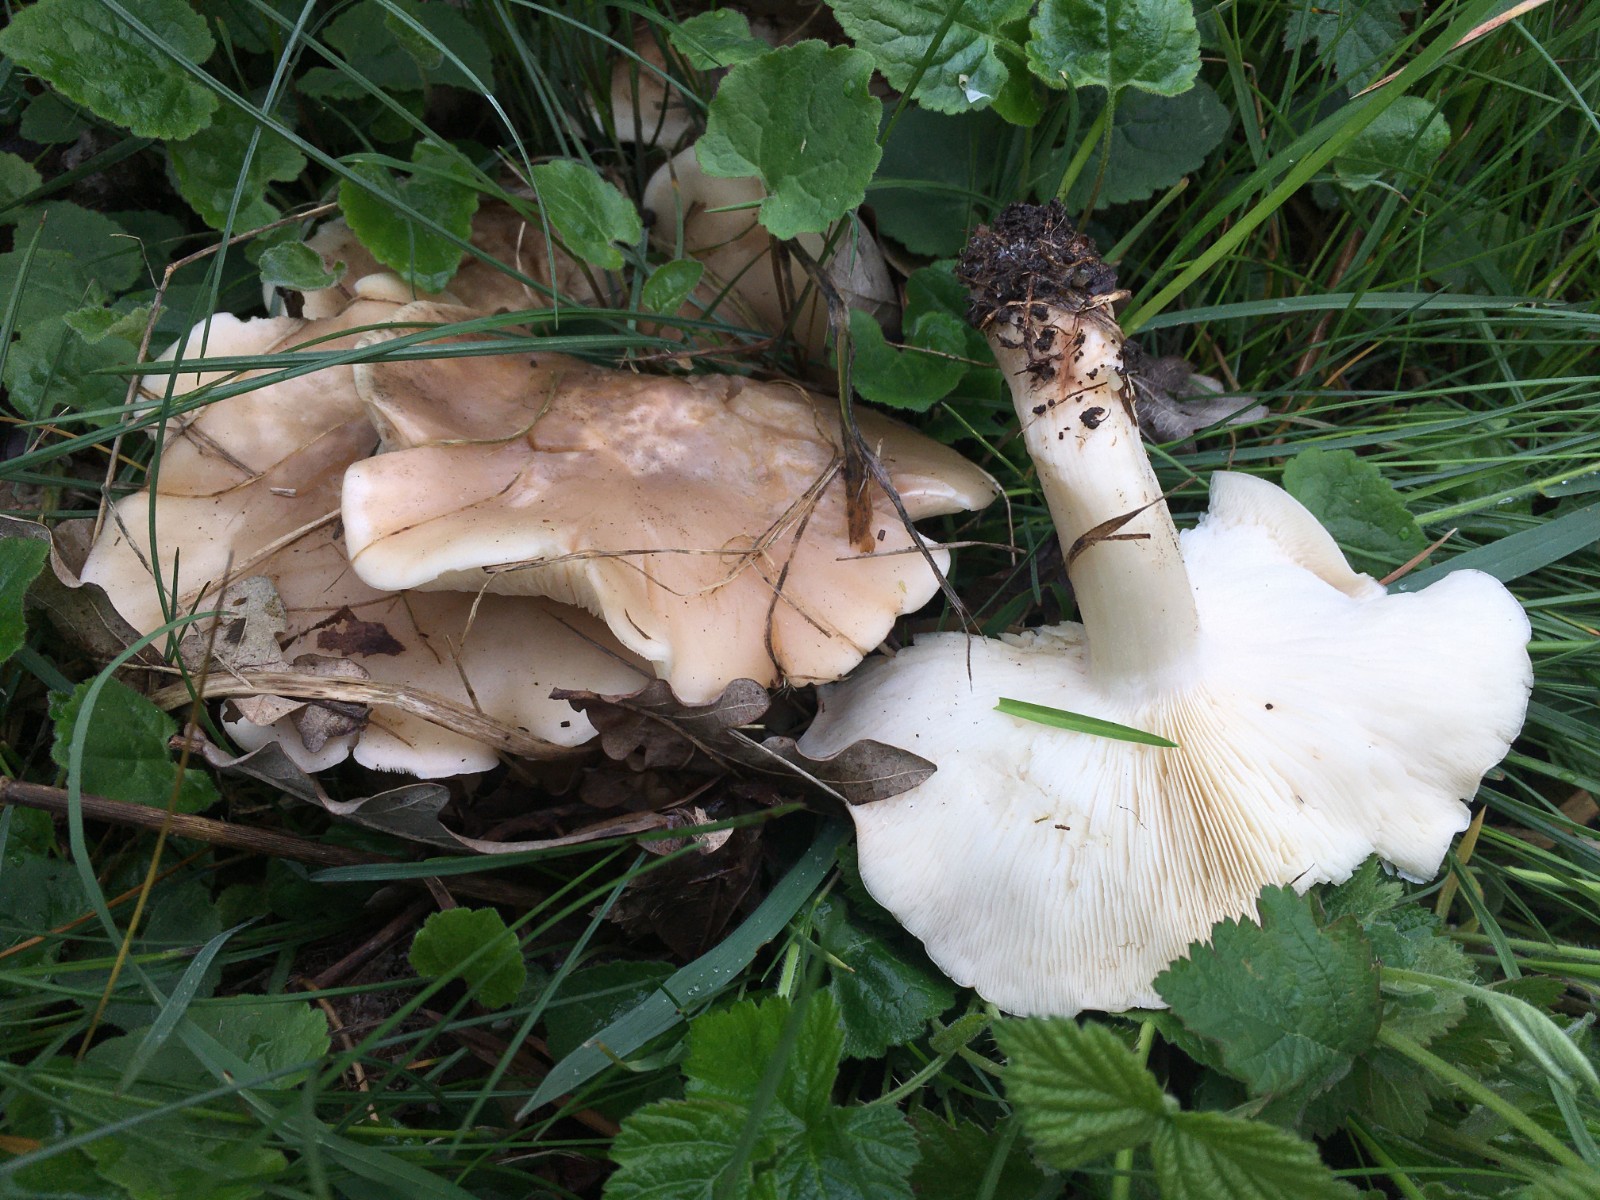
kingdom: Fungi
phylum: Basidiomycota
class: Agaricomycetes
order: Agaricales
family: Lyophyllaceae
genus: Calocybe
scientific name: Calocybe gambosa
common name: vårmusseron
